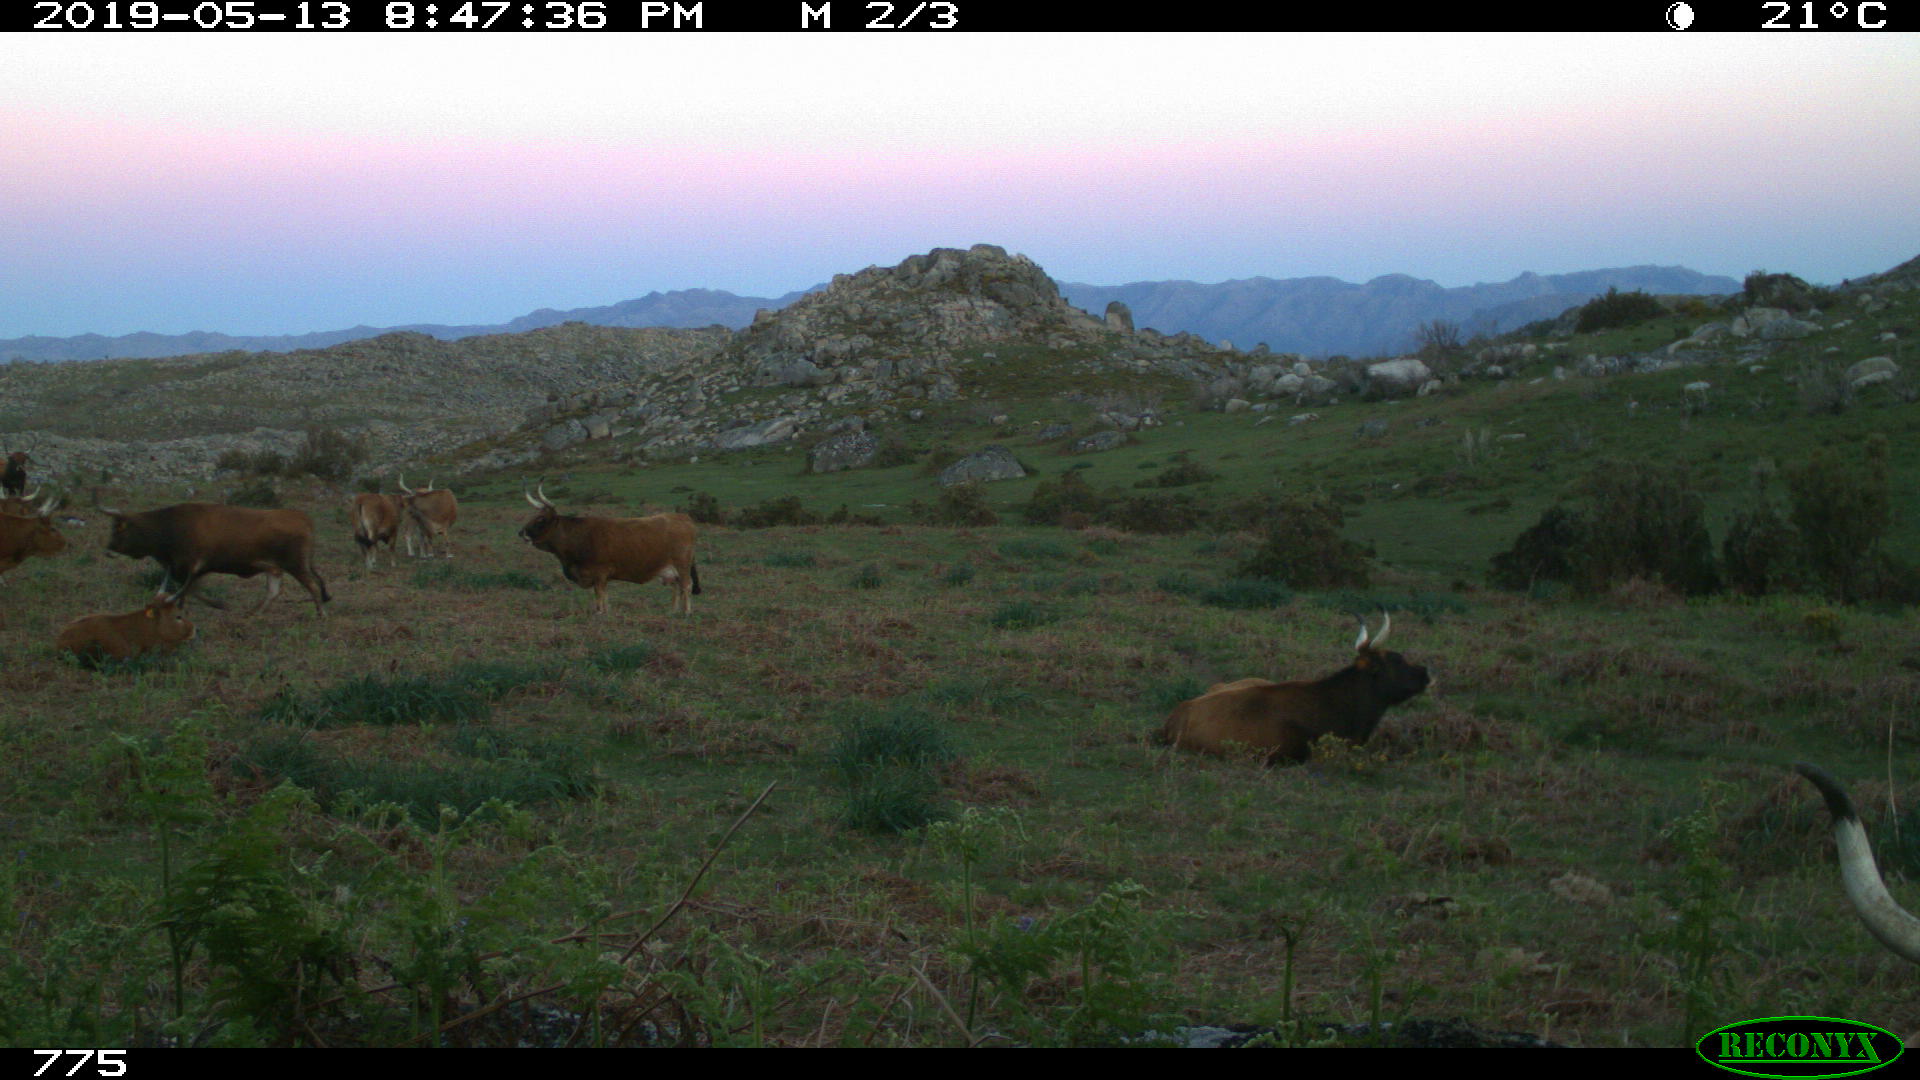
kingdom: Animalia
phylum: Chordata
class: Mammalia
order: Artiodactyla
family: Bovidae
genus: Bos
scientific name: Bos taurus
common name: Domesticated cattle
